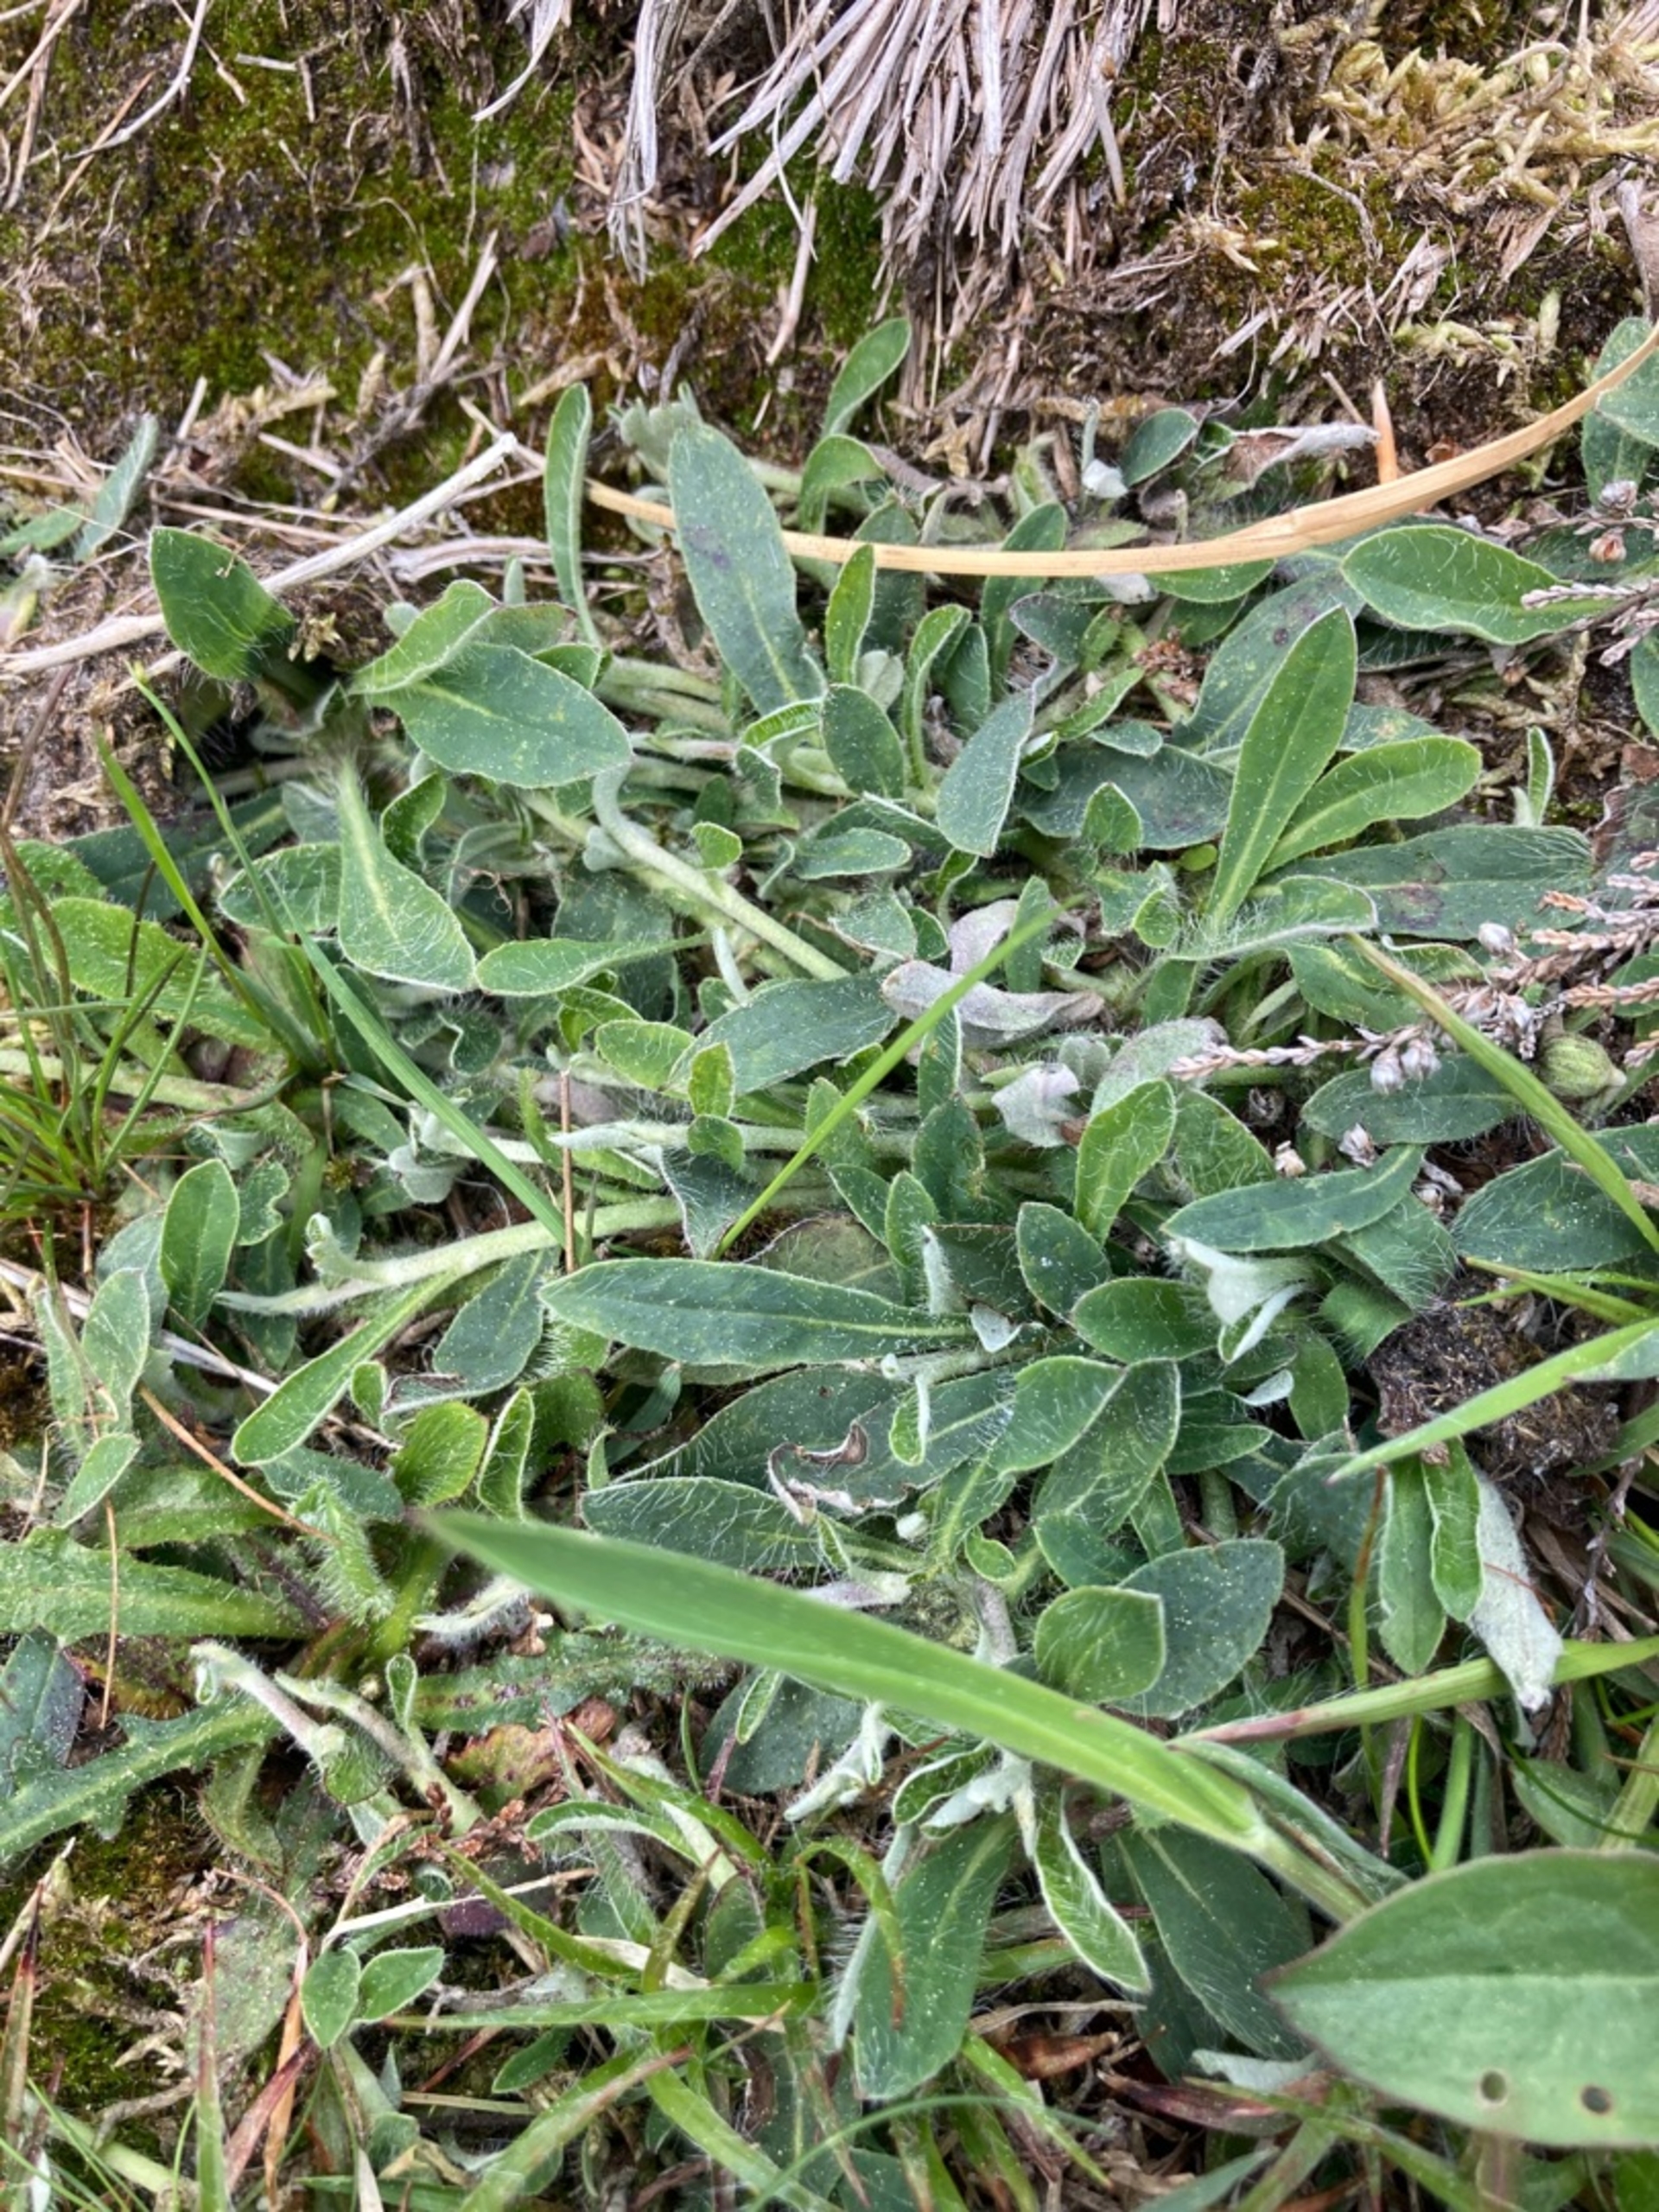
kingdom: Plantae
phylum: Tracheophyta
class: Magnoliopsida
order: Asterales
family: Asteraceae
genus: Pilosella
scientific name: Pilosella officinarum
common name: Håret høgeurt
